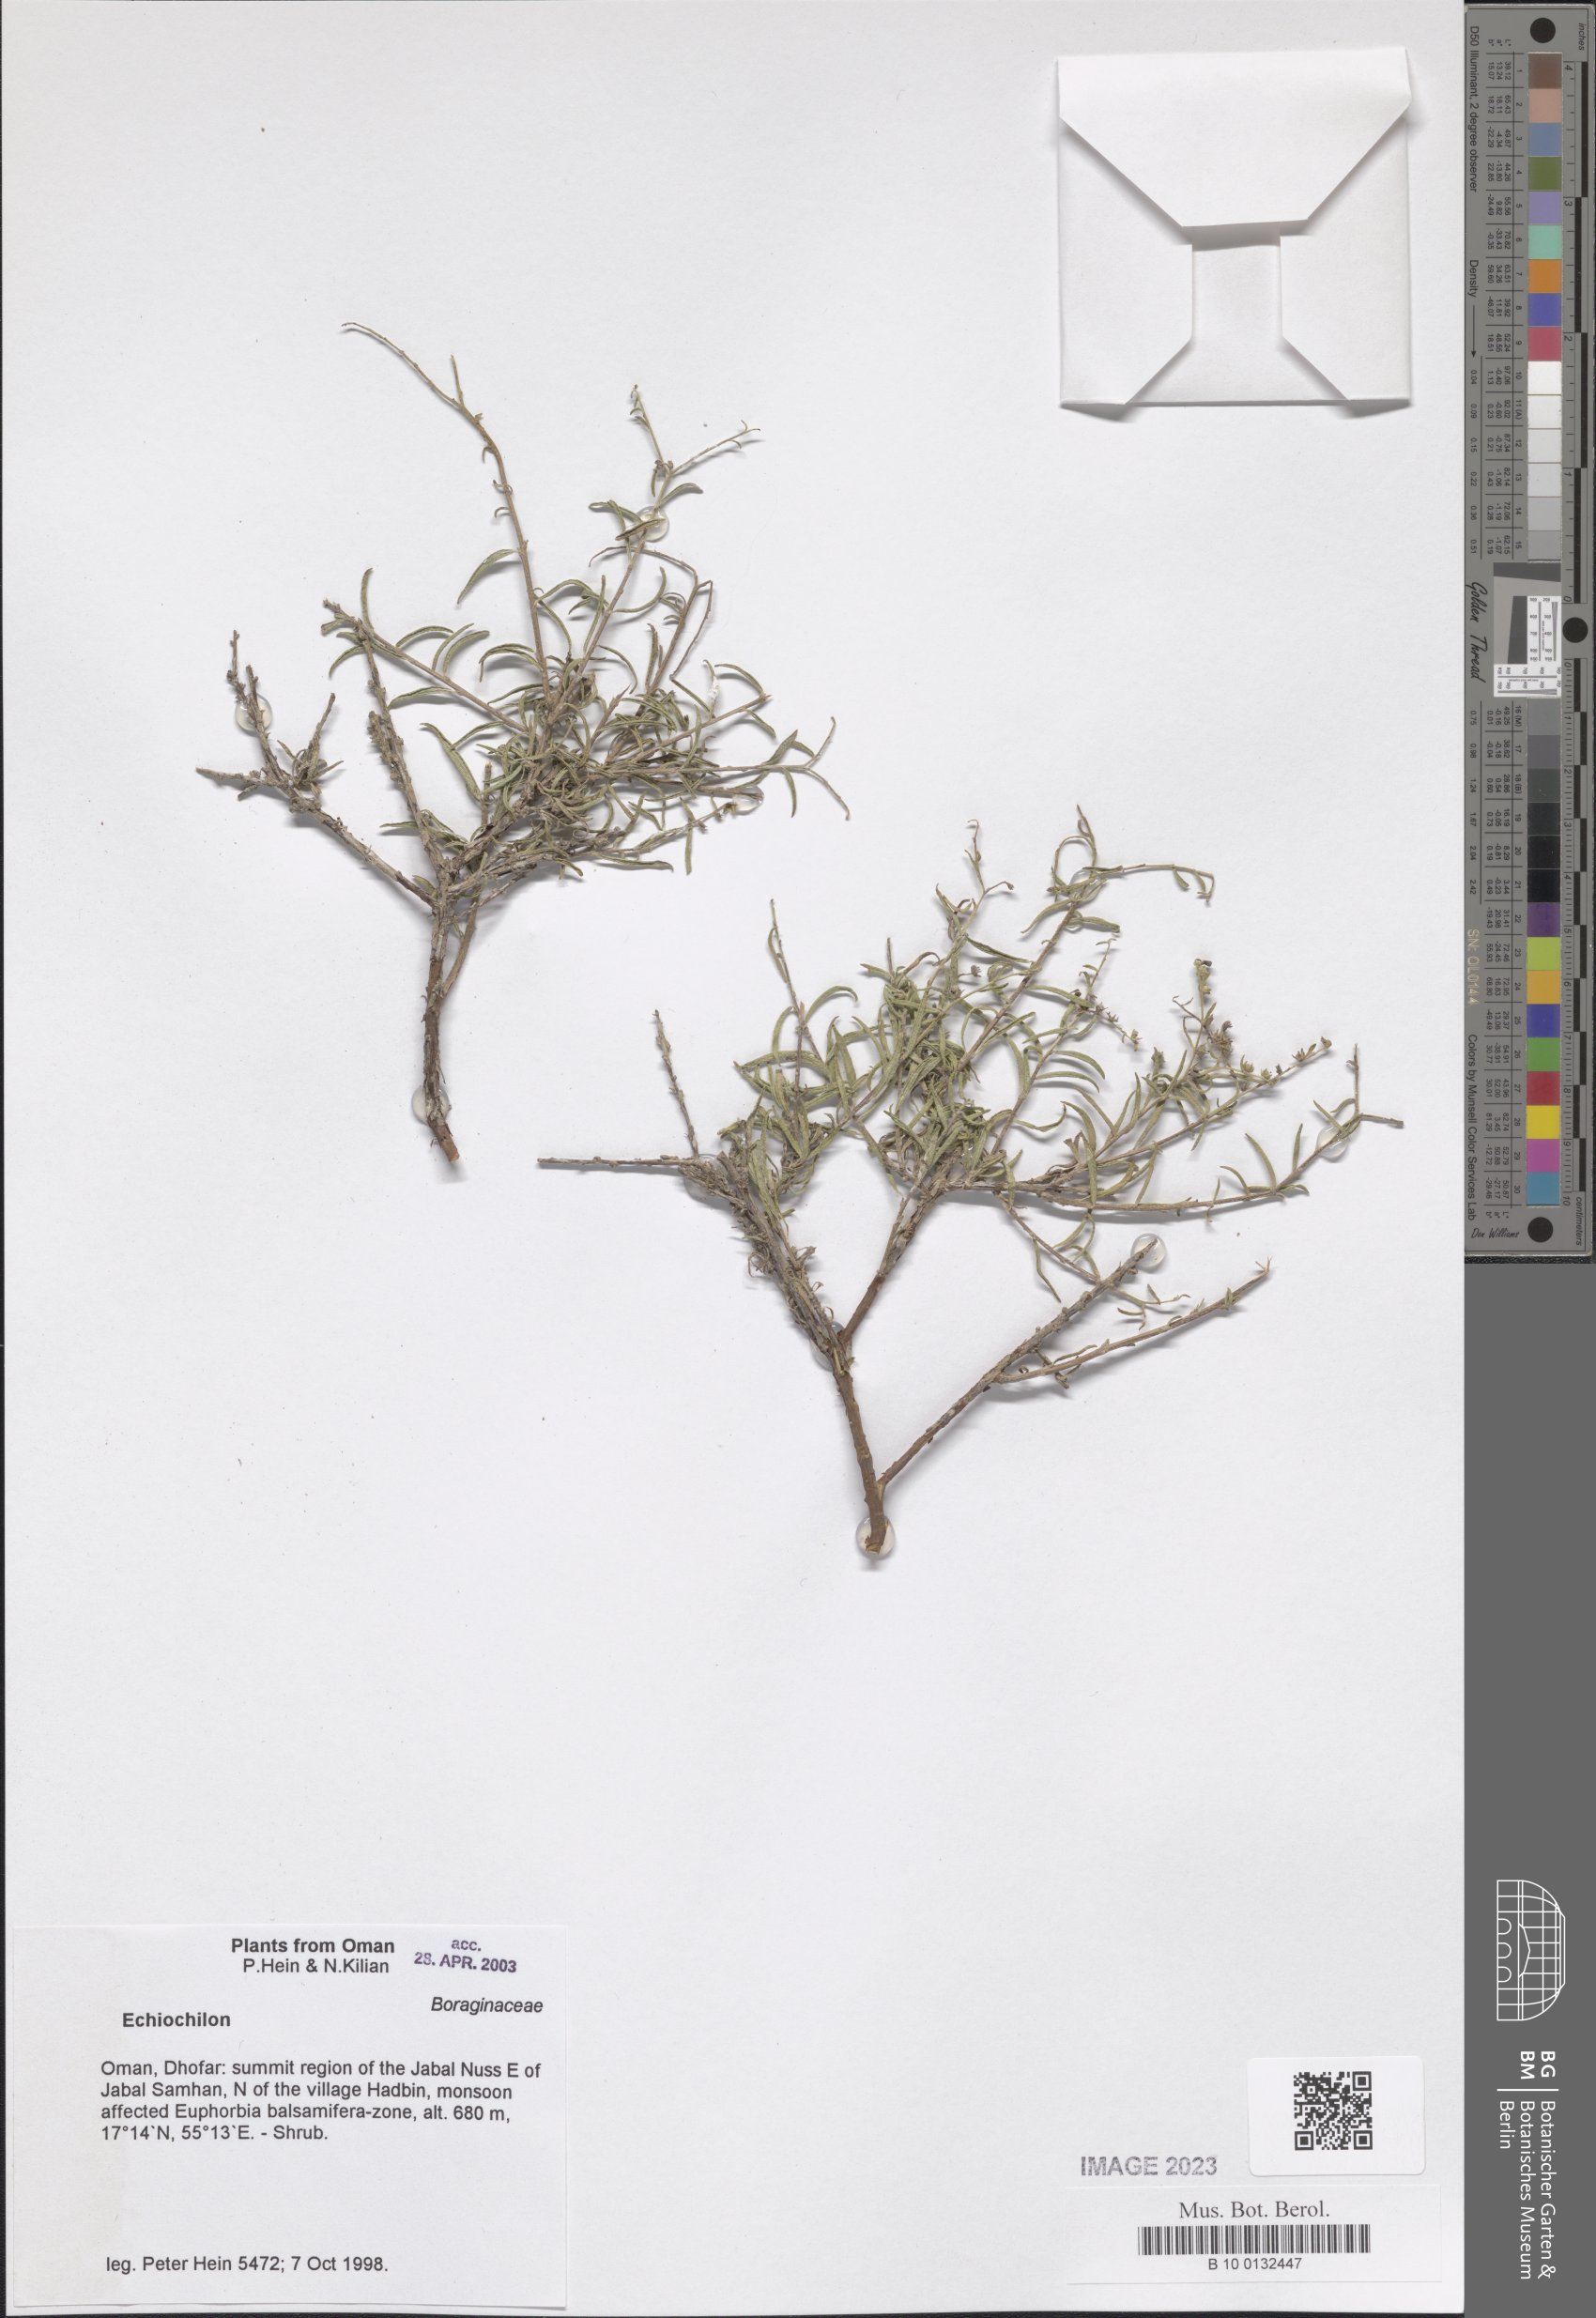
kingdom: Plantae
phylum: Tracheophyta
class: Magnoliopsida
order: Boraginales
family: Boraginaceae
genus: Echiochilon
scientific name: Echiochilon
